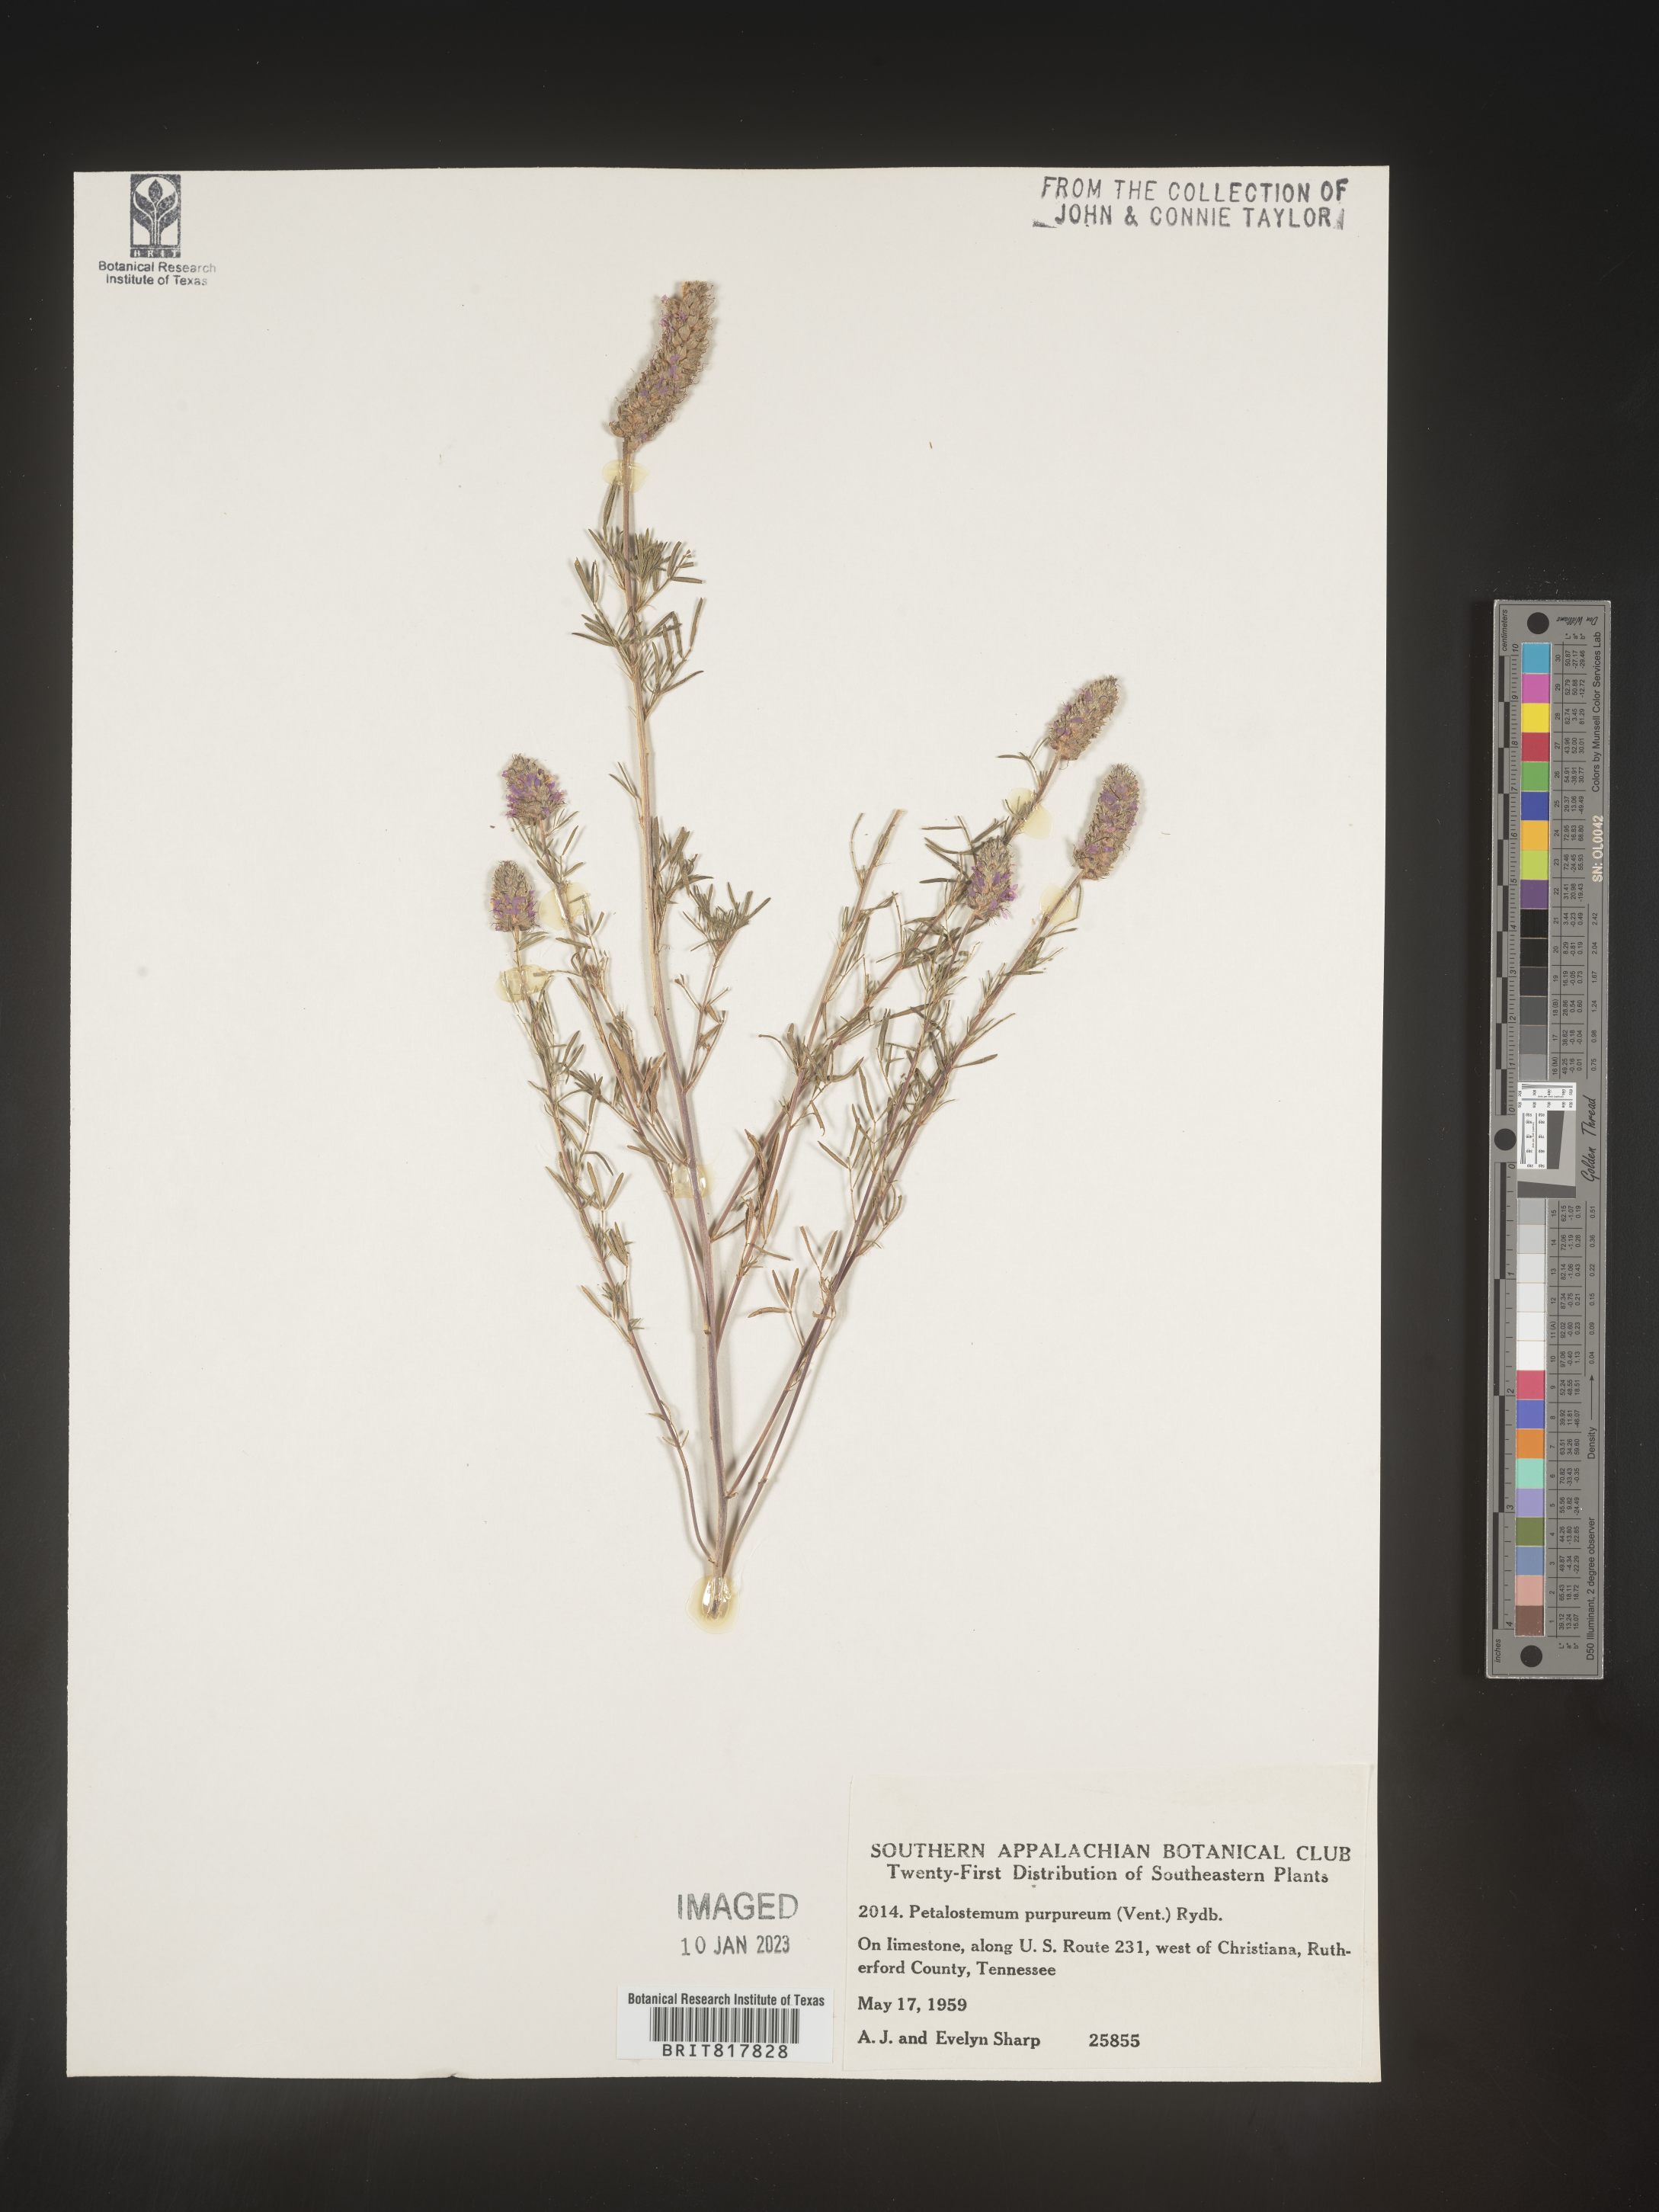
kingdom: Plantae
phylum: Tracheophyta
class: Magnoliopsida
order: Fabales
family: Fabaceae
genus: Dalea
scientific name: Dalea purpurea
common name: Purple prairie-clover
